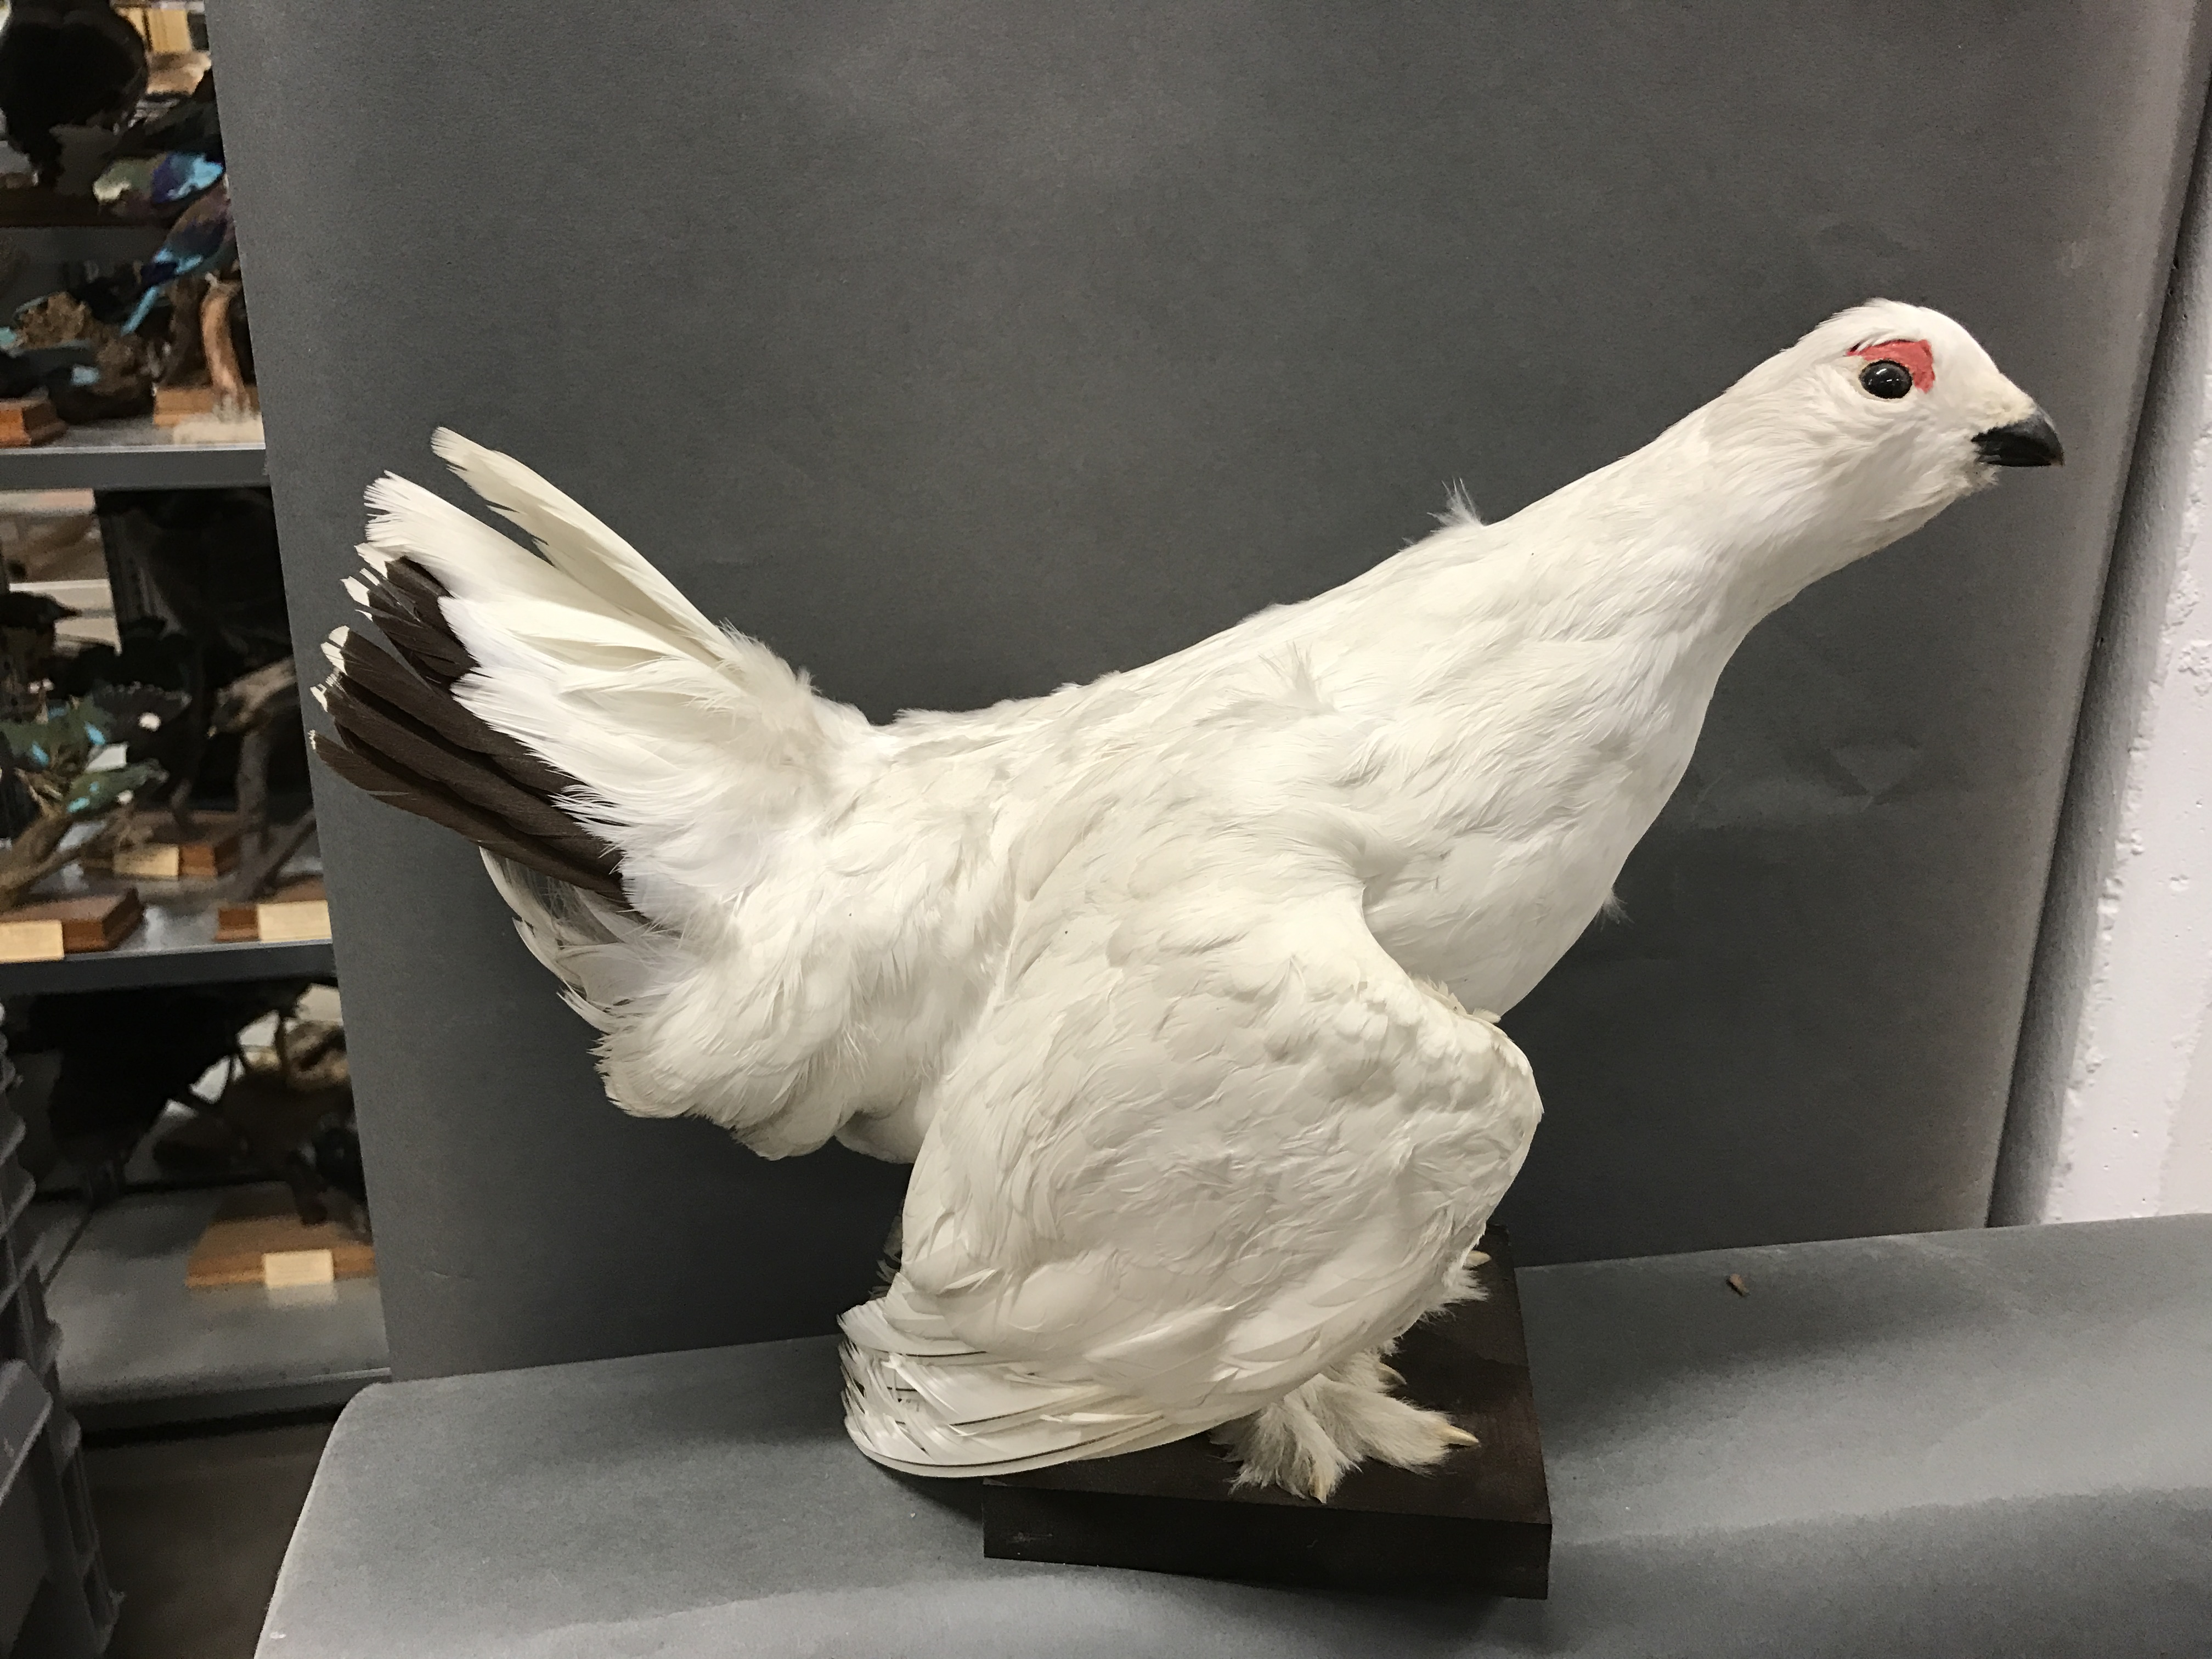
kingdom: Animalia
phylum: Chordata
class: Aves
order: Galliformes
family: Phasianidae
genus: Lagopus
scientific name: Lagopus lagopus
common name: Willow ptarmigan
